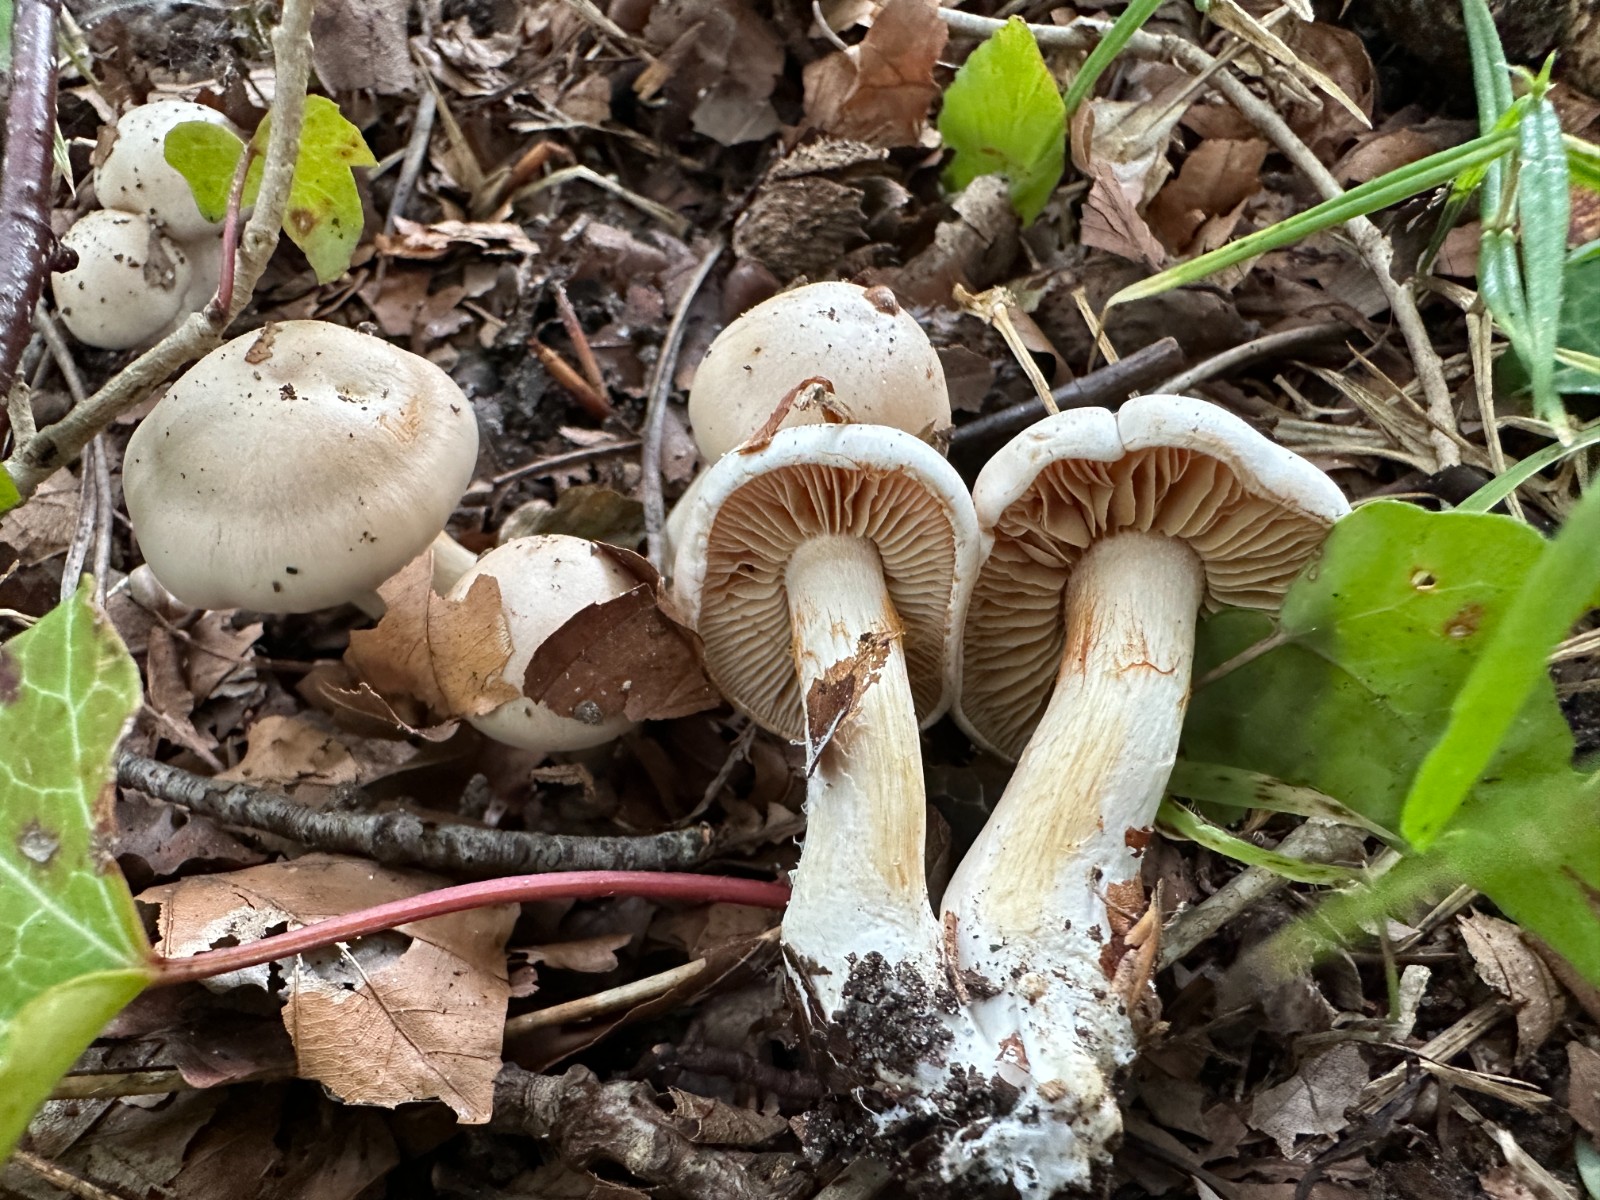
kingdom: Fungi
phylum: Basidiomycota
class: Agaricomycetes
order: Agaricales
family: Cortinariaceae
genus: Thaxterogaster
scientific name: Thaxterogaster barbatus
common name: elfenbens-slørhat
